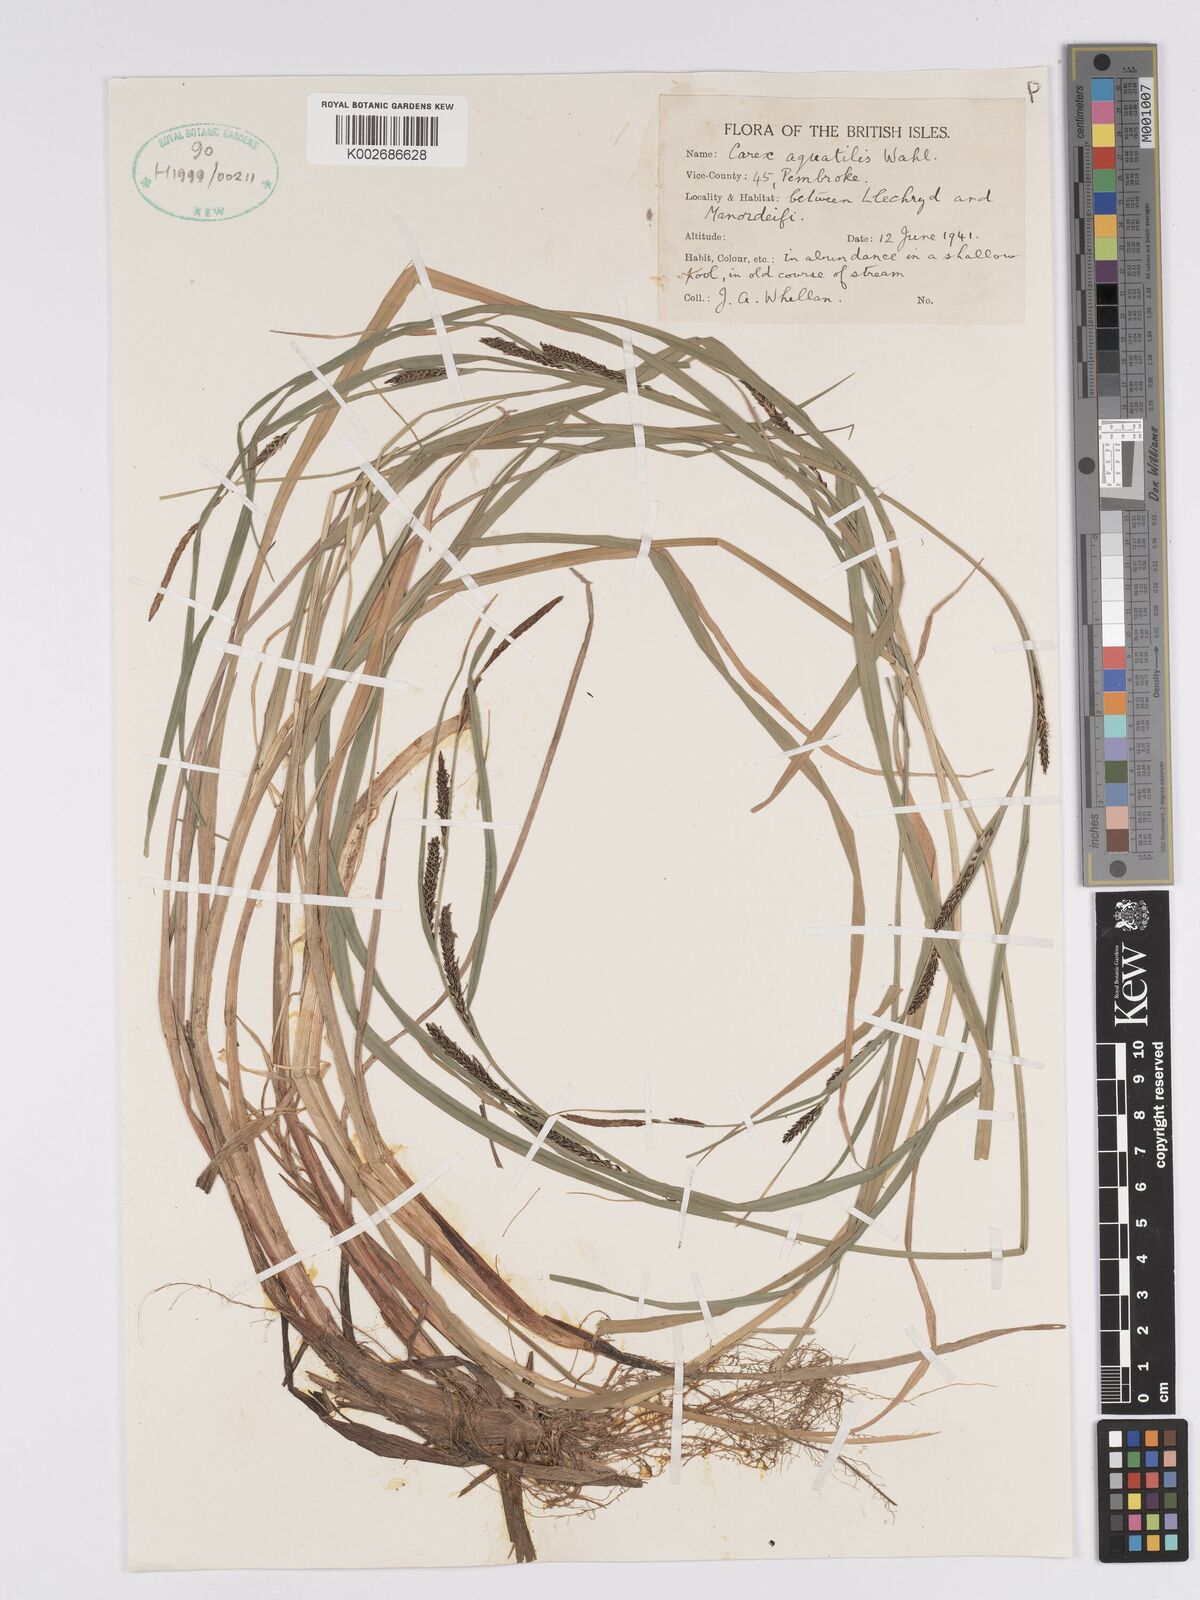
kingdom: Plantae
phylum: Tracheophyta
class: Liliopsida
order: Poales
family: Cyperaceae
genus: Carex
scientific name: Carex aquatilis
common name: Water sedge
